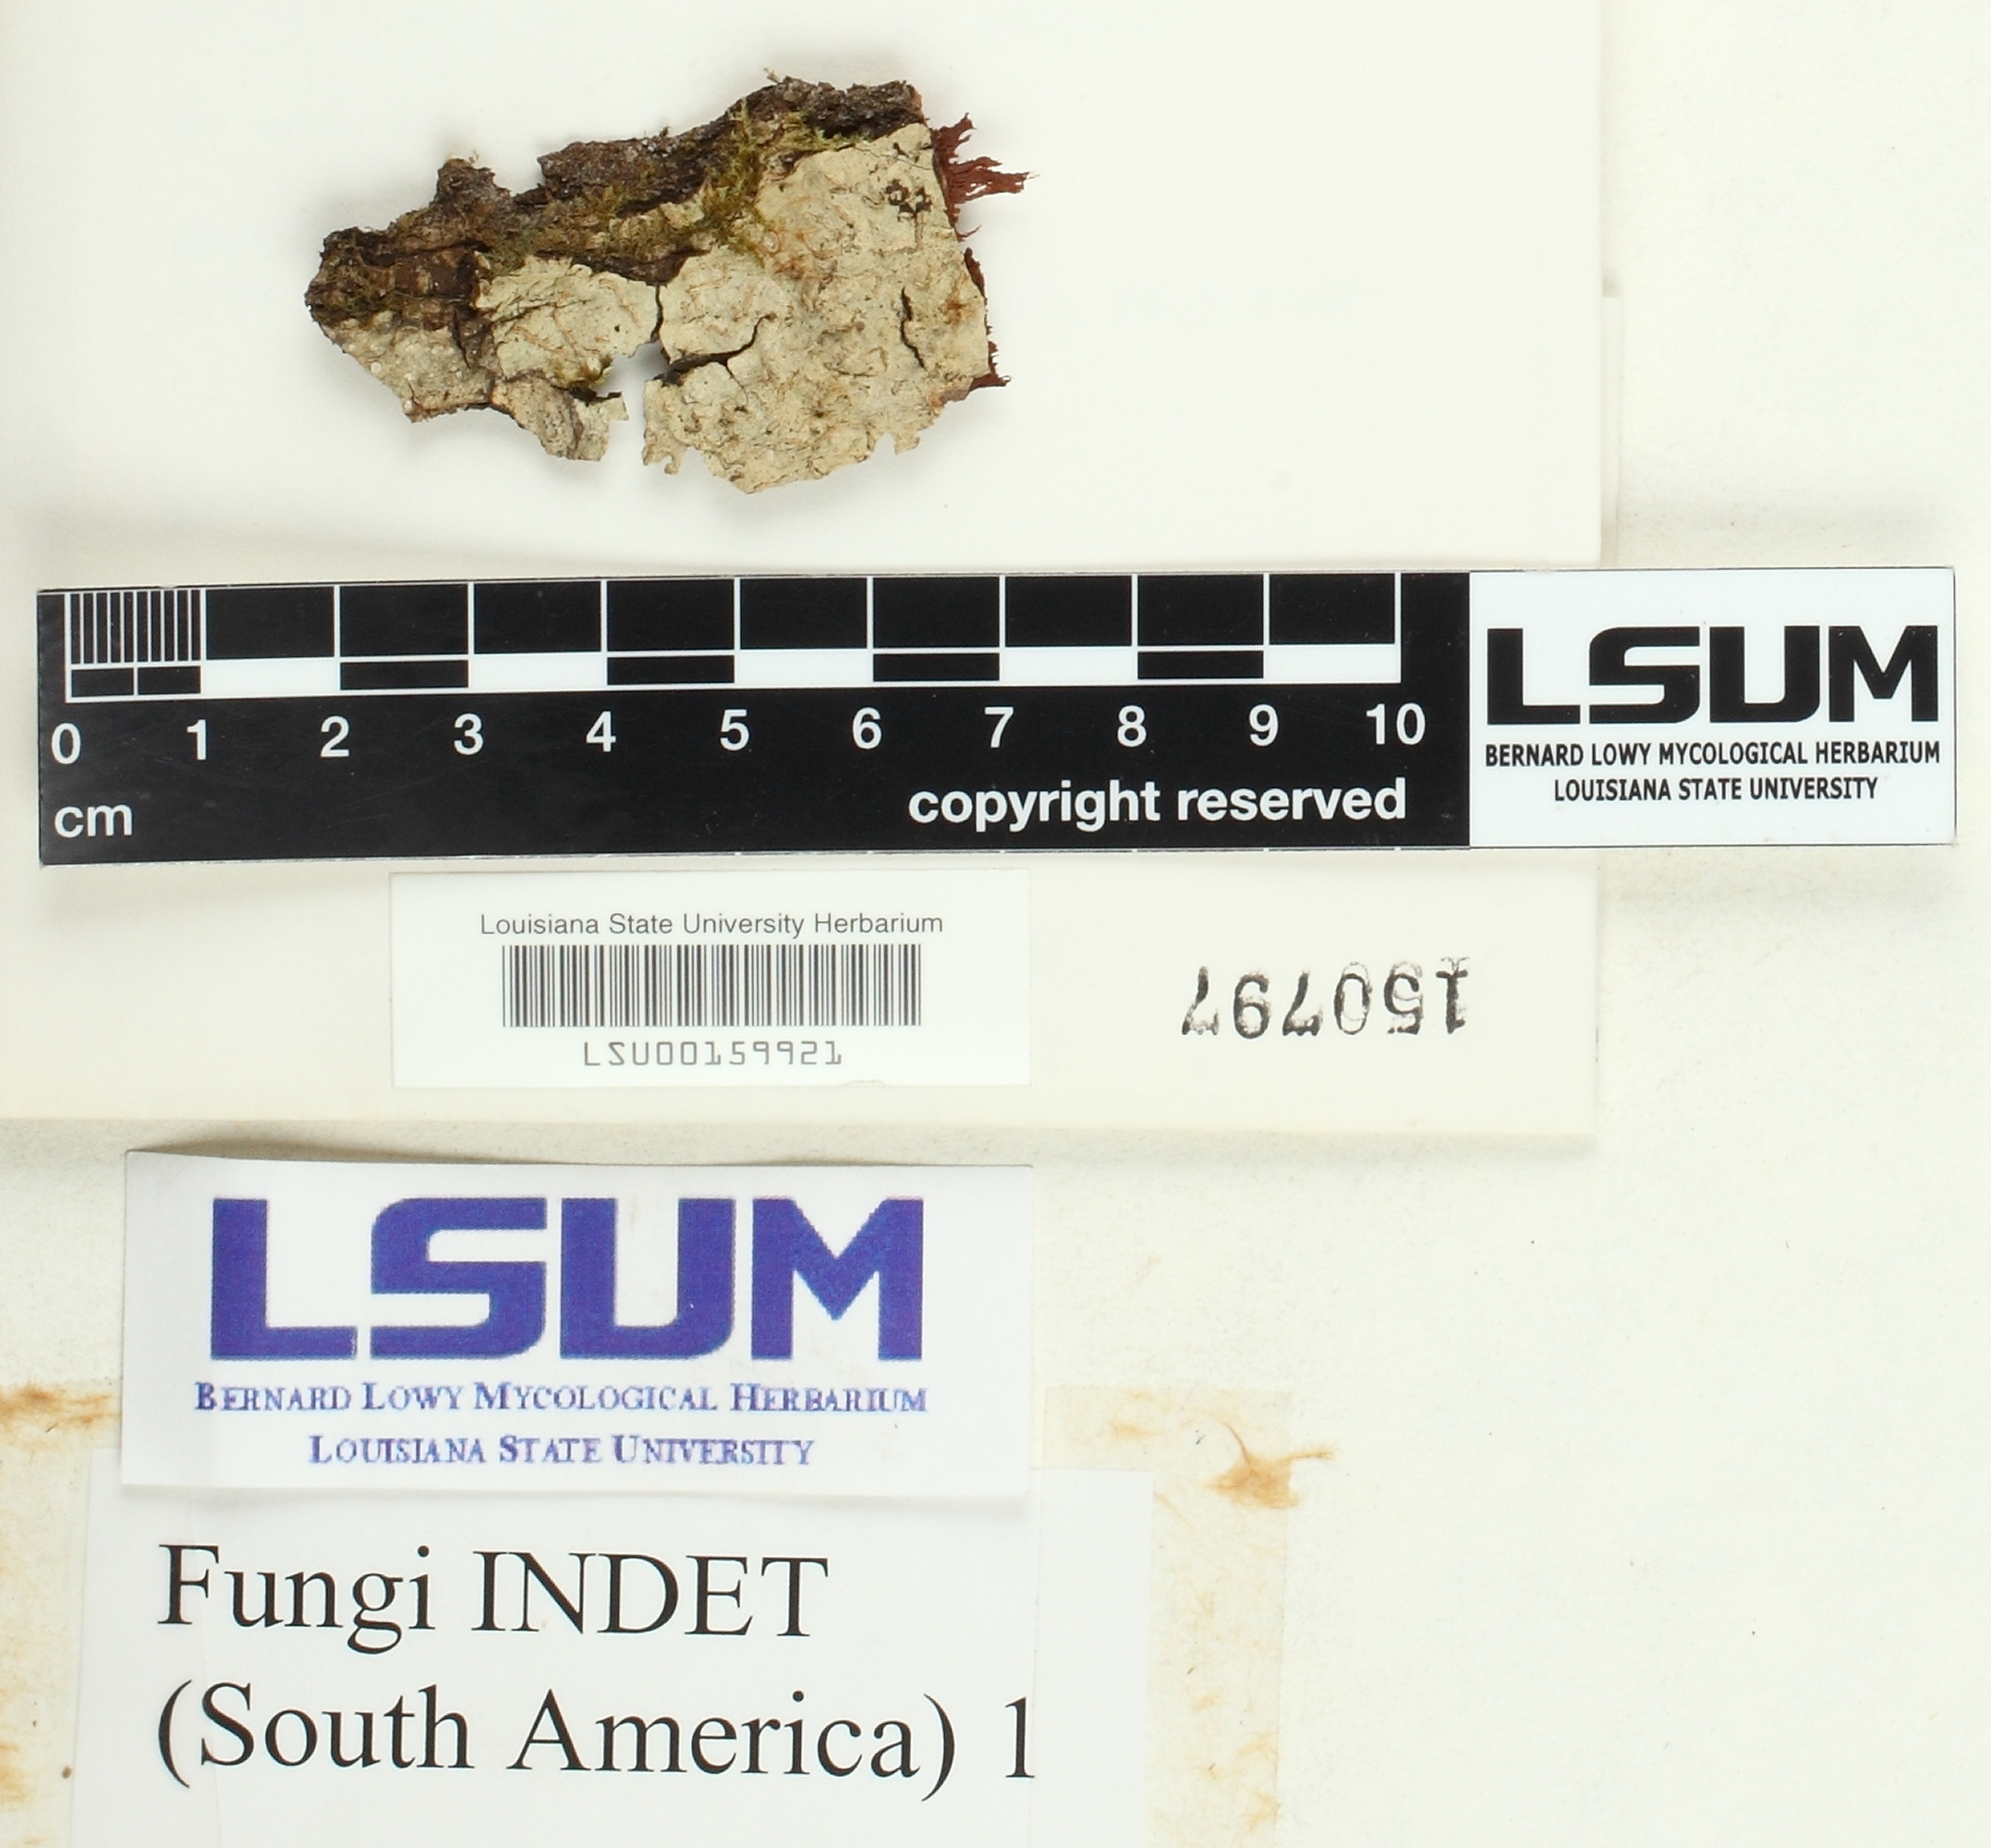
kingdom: Fungi
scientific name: Fungi
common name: Fungi
